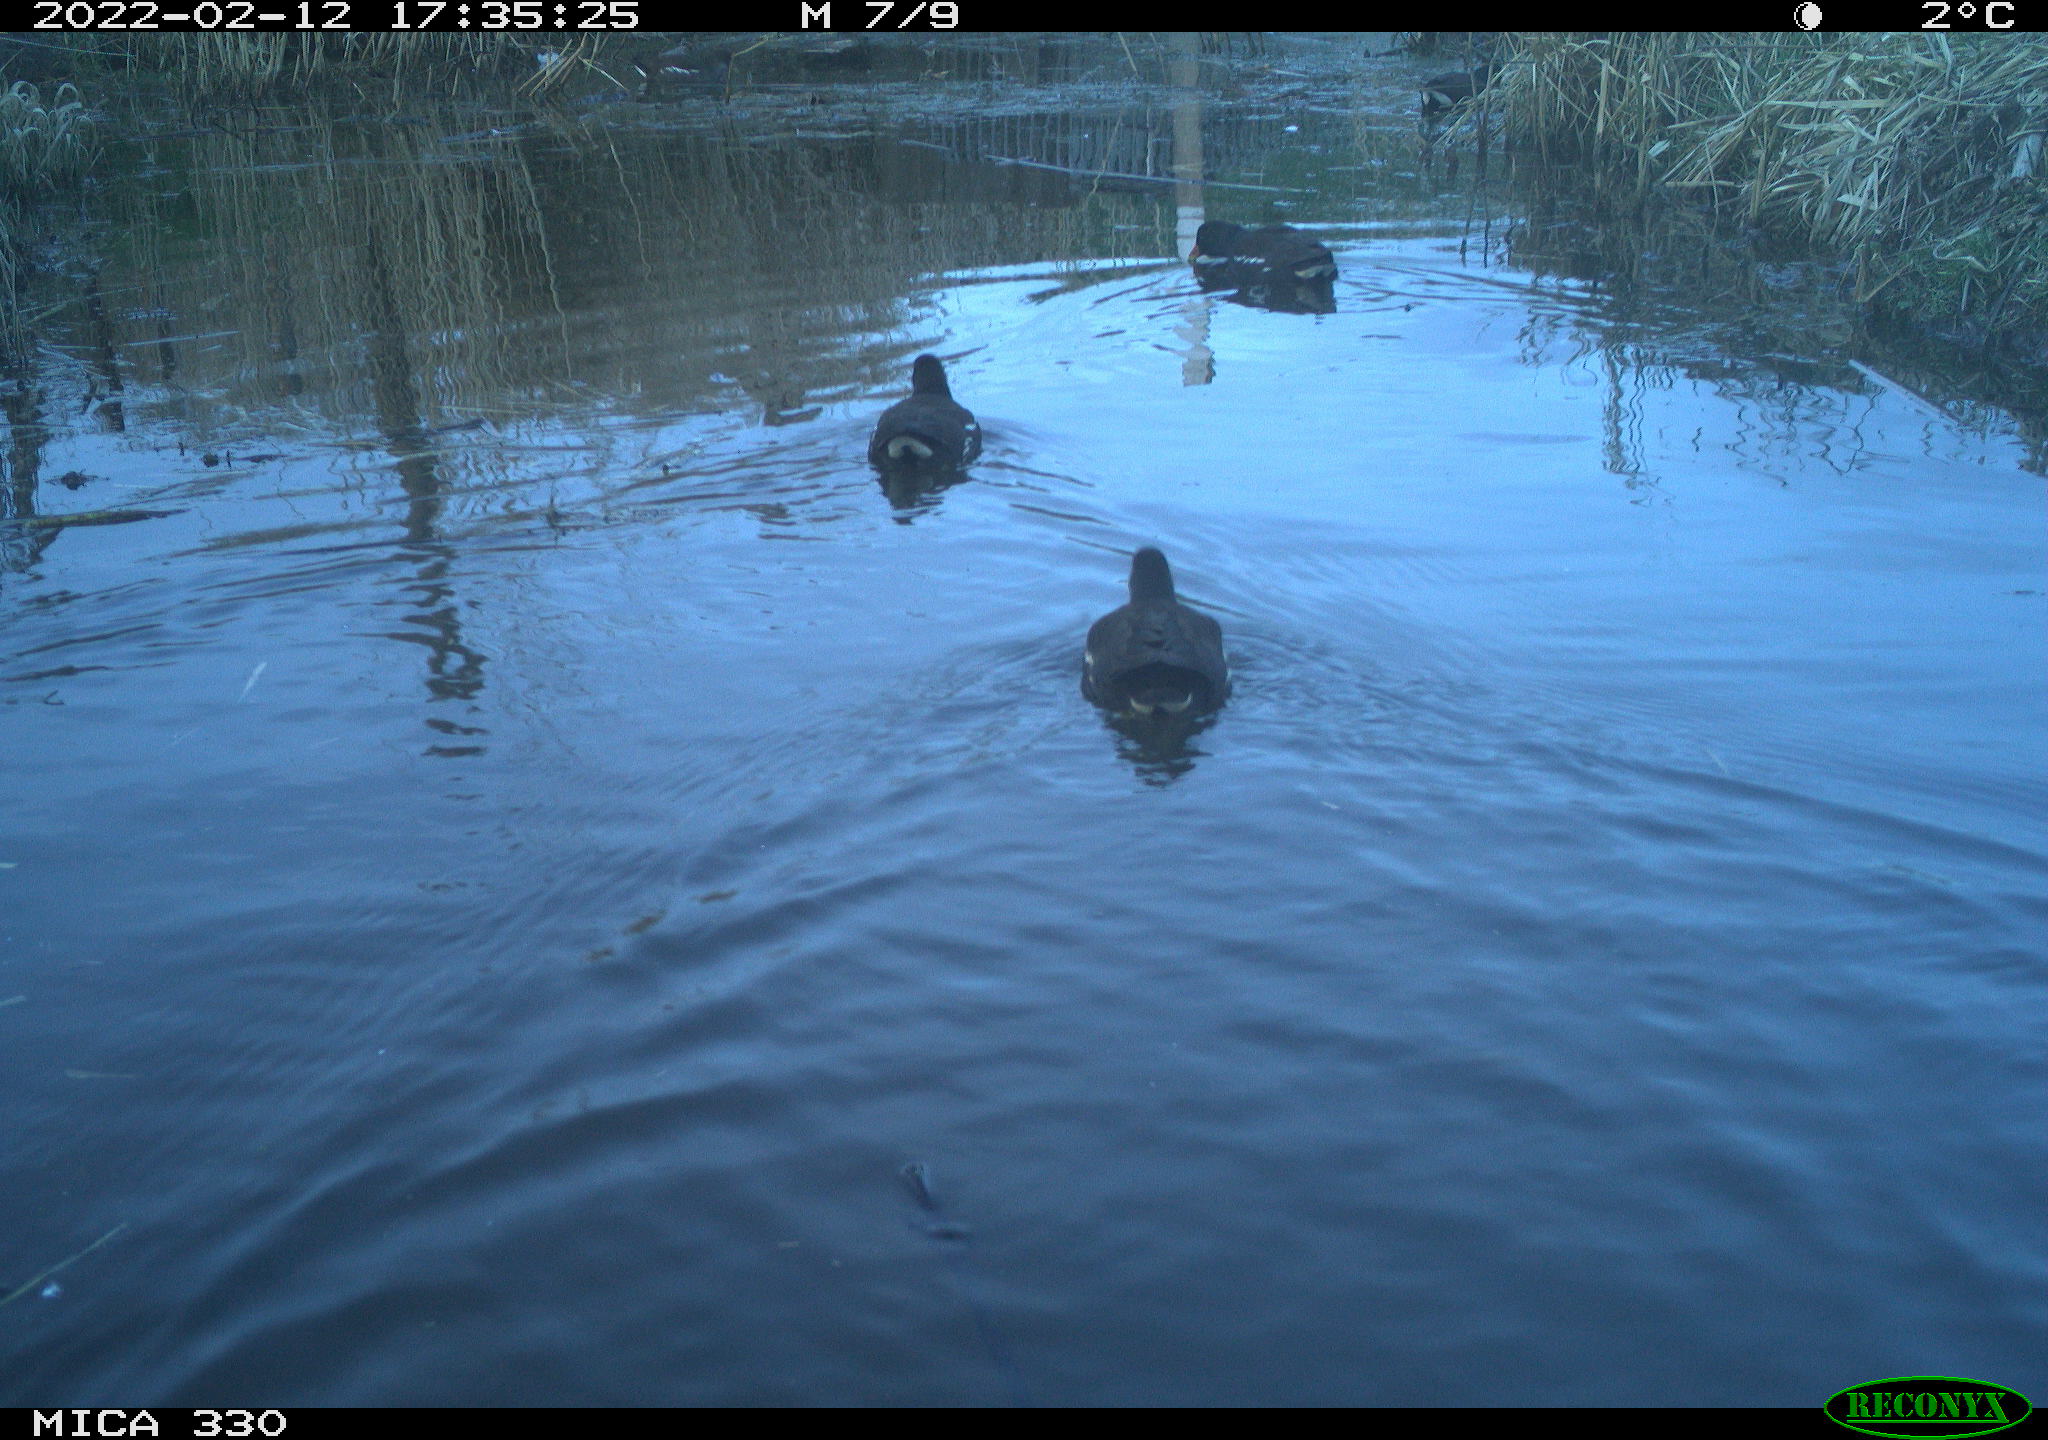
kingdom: Animalia
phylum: Chordata
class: Aves
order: Gruiformes
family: Rallidae
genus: Gallinula
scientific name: Gallinula chloropus
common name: Common moorhen
